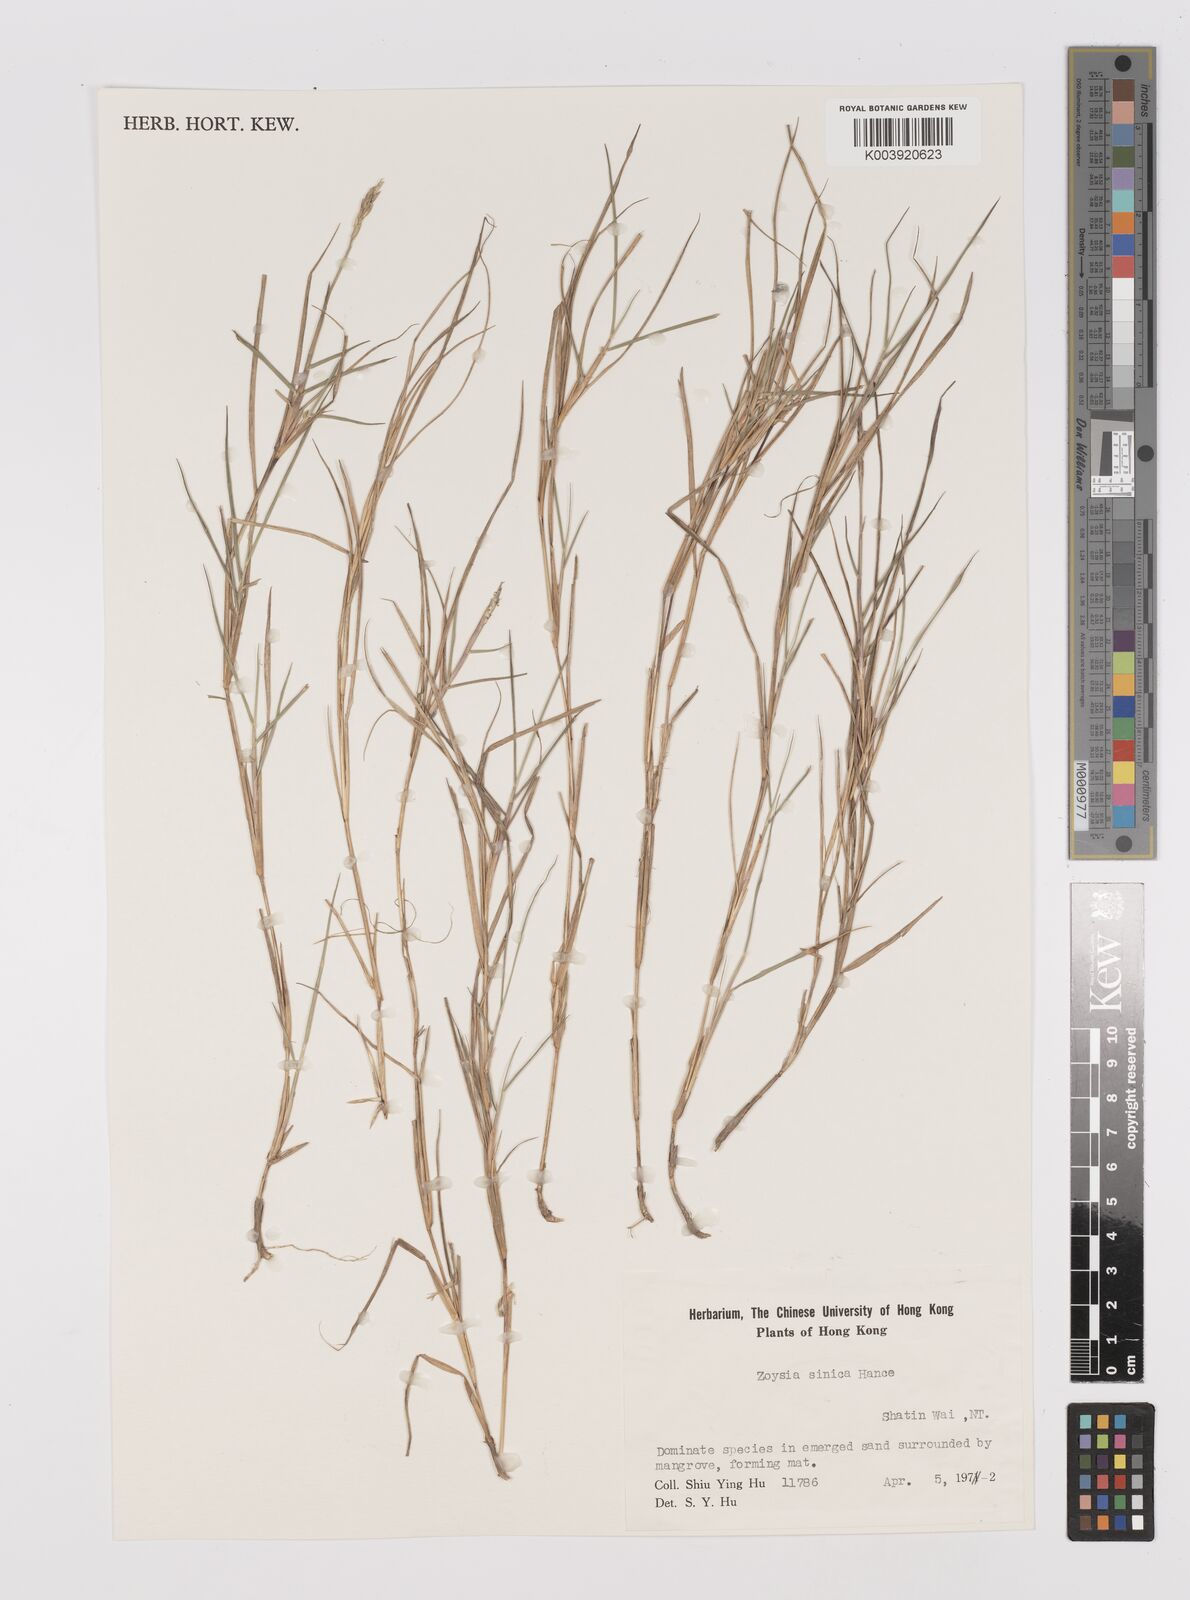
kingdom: Plantae
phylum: Tracheophyta
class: Liliopsida
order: Poales
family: Poaceae
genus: Zoysia
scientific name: Zoysia sinica
